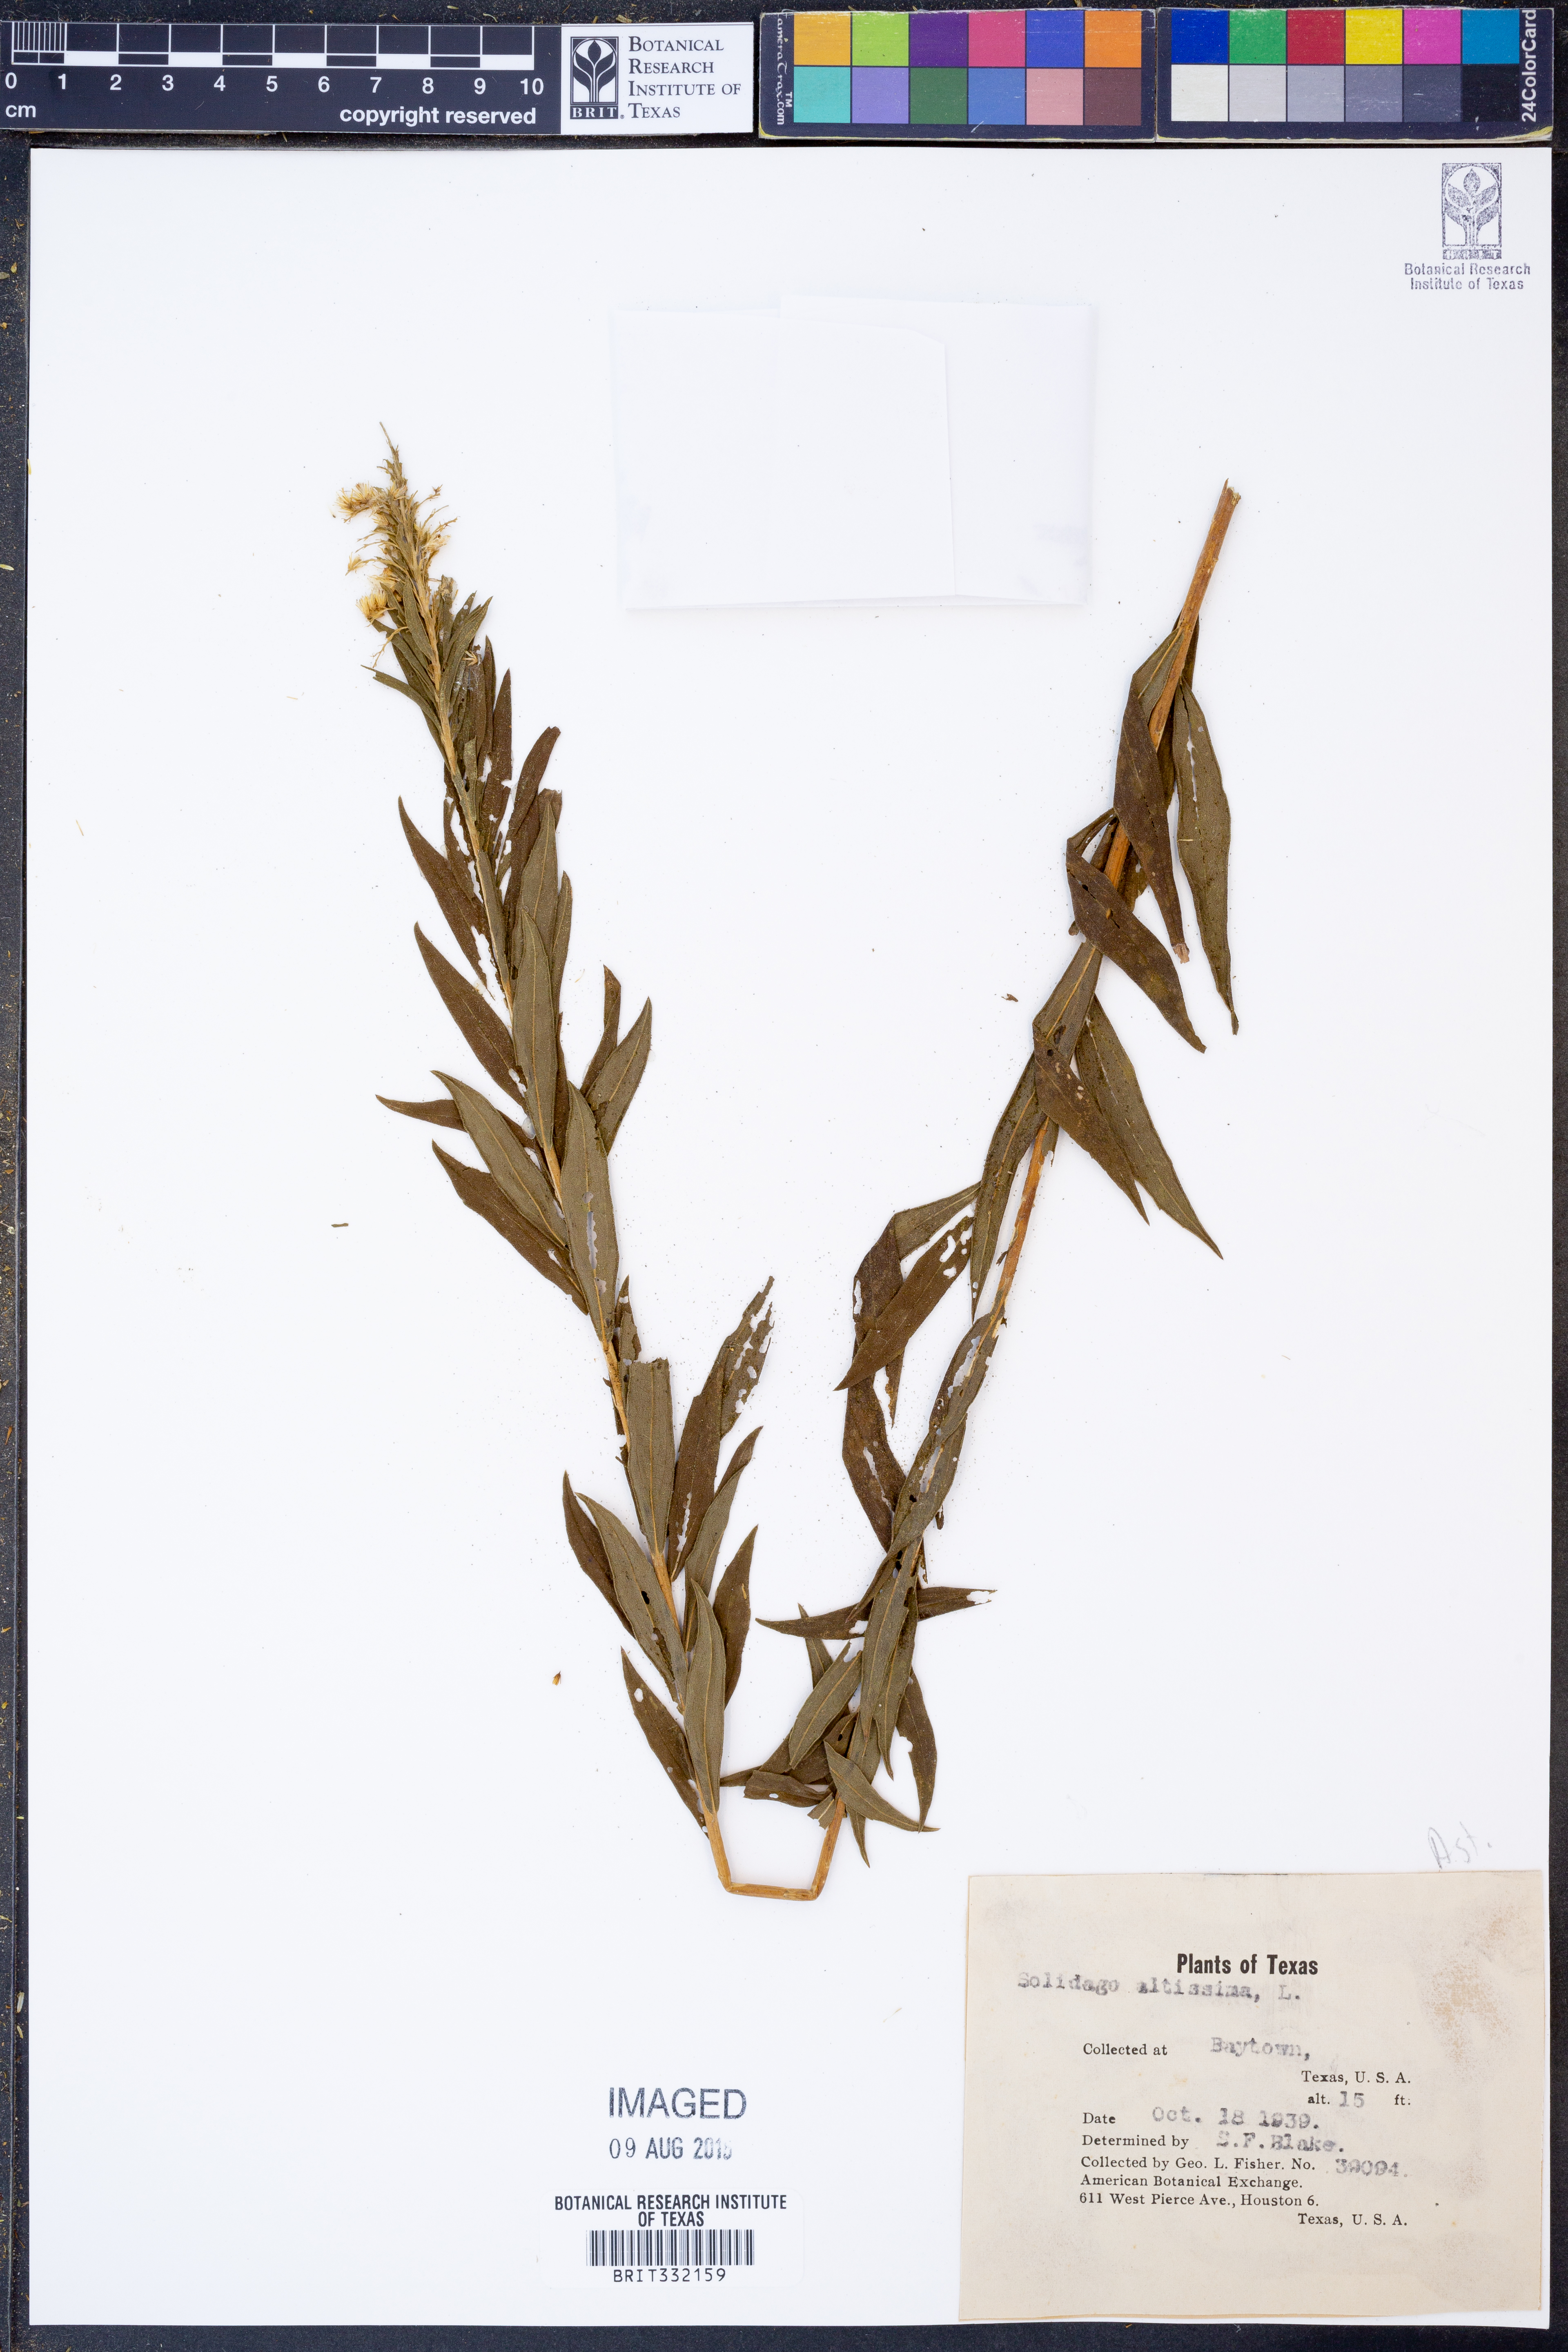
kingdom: Plantae
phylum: Tracheophyta
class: Magnoliopsida
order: Asterales
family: Asteraceae
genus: Solidago
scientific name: Solidago altissima
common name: Late goldenrod
